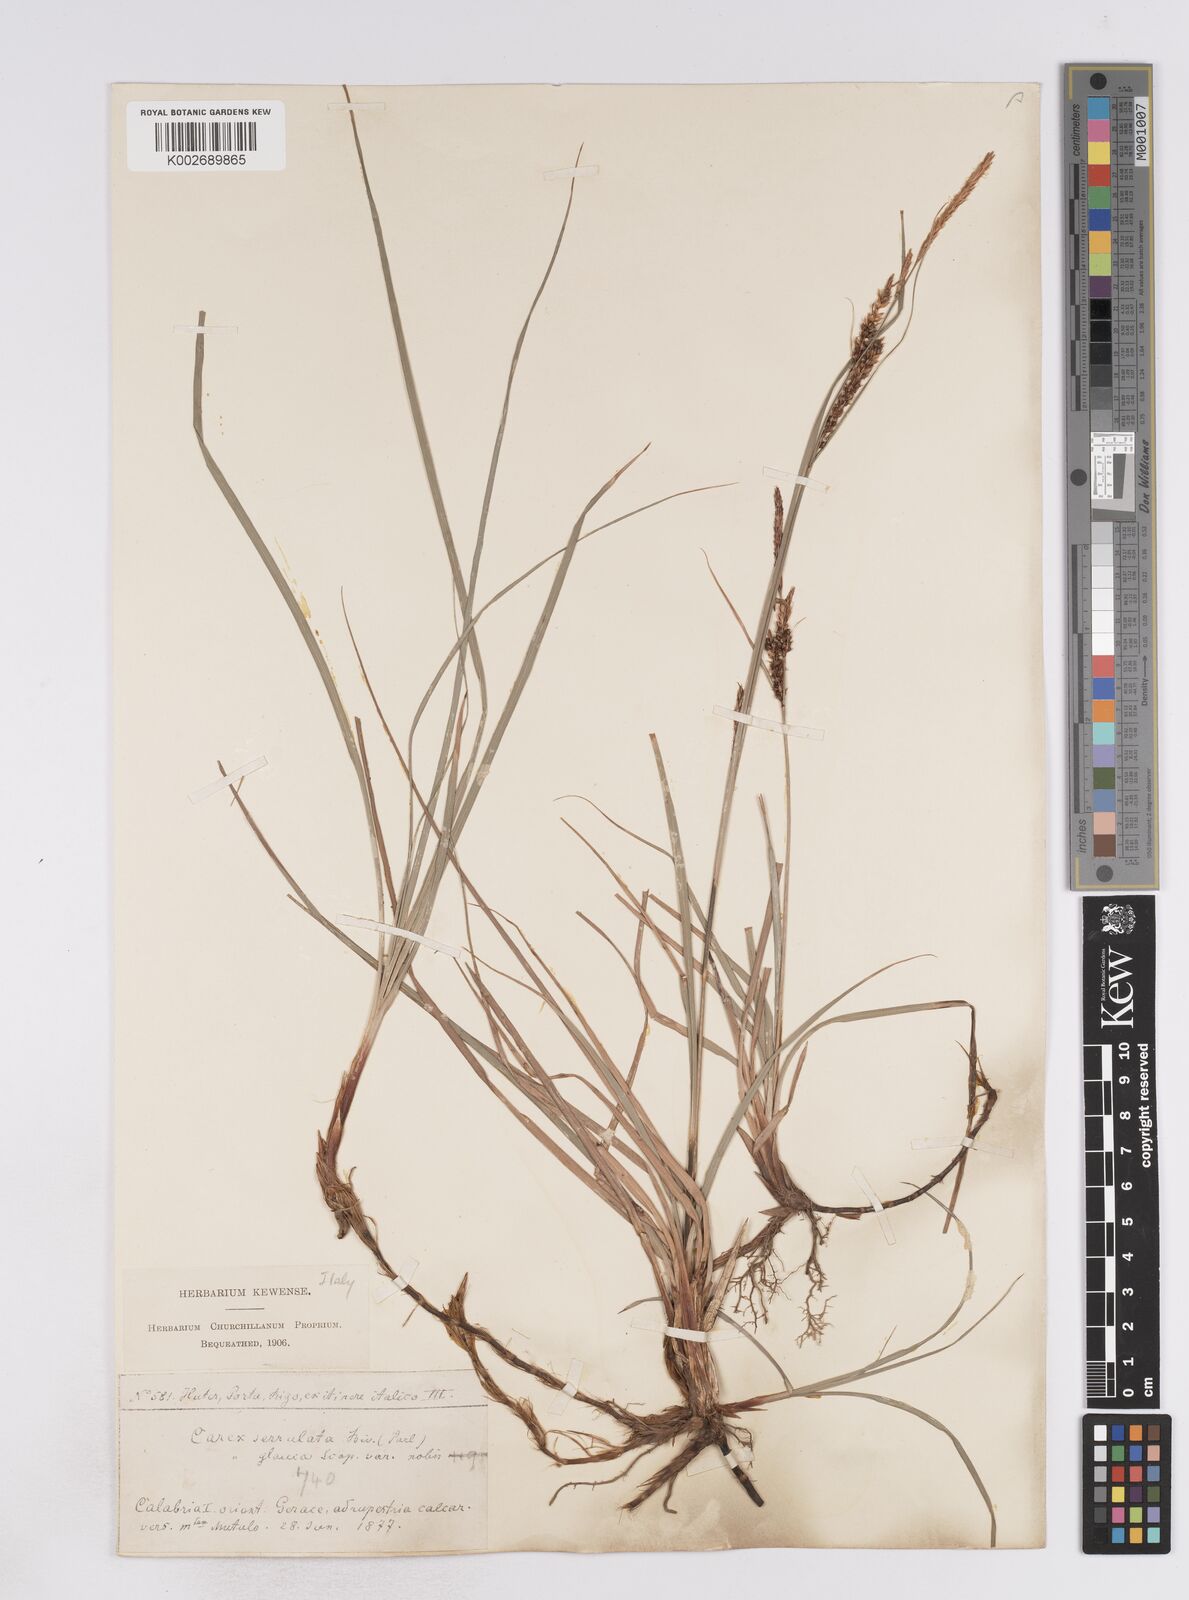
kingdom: Plantae
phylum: Tracheophyta
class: Liliopsida
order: Poales
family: Cyperaceae
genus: Carex
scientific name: Carex flacca
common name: Glaucous sedge
